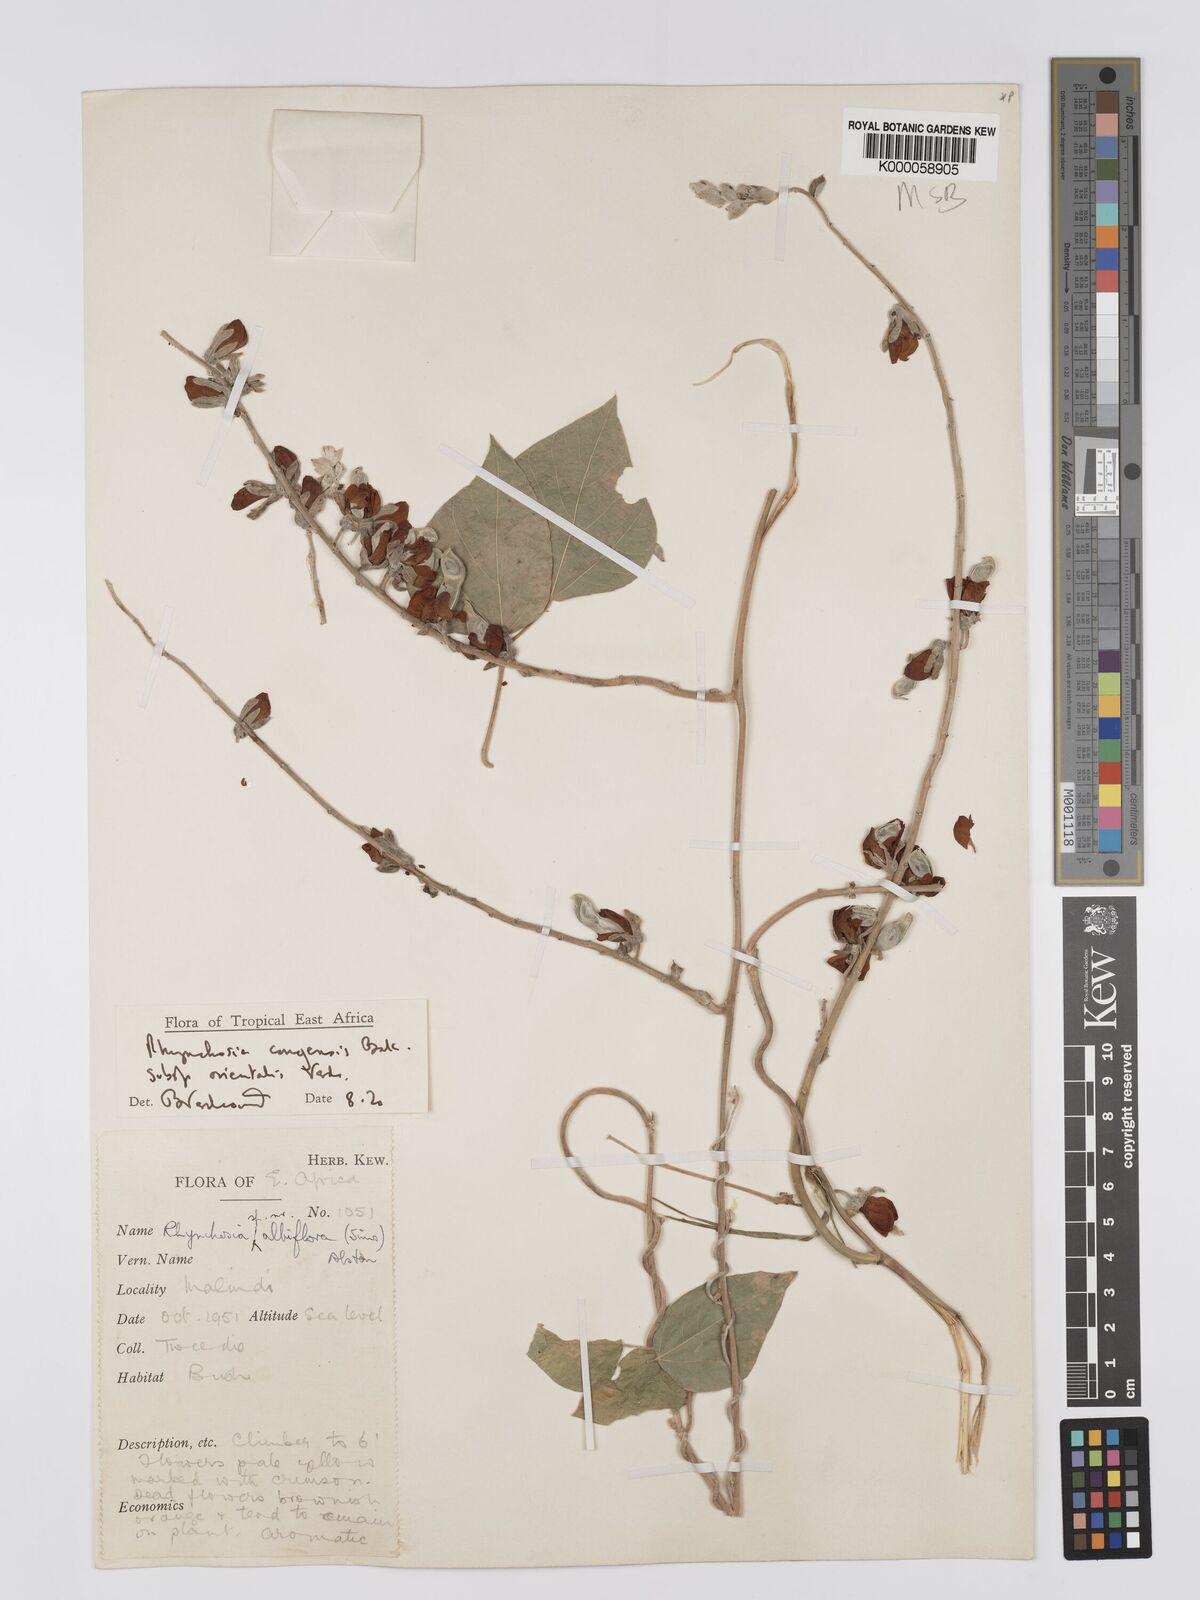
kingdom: Plantae
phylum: Tracheophyta
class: Magnoliopsida
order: Fabales
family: Fabaceae
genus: Rhynchosia
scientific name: Rhynchosia congensis
